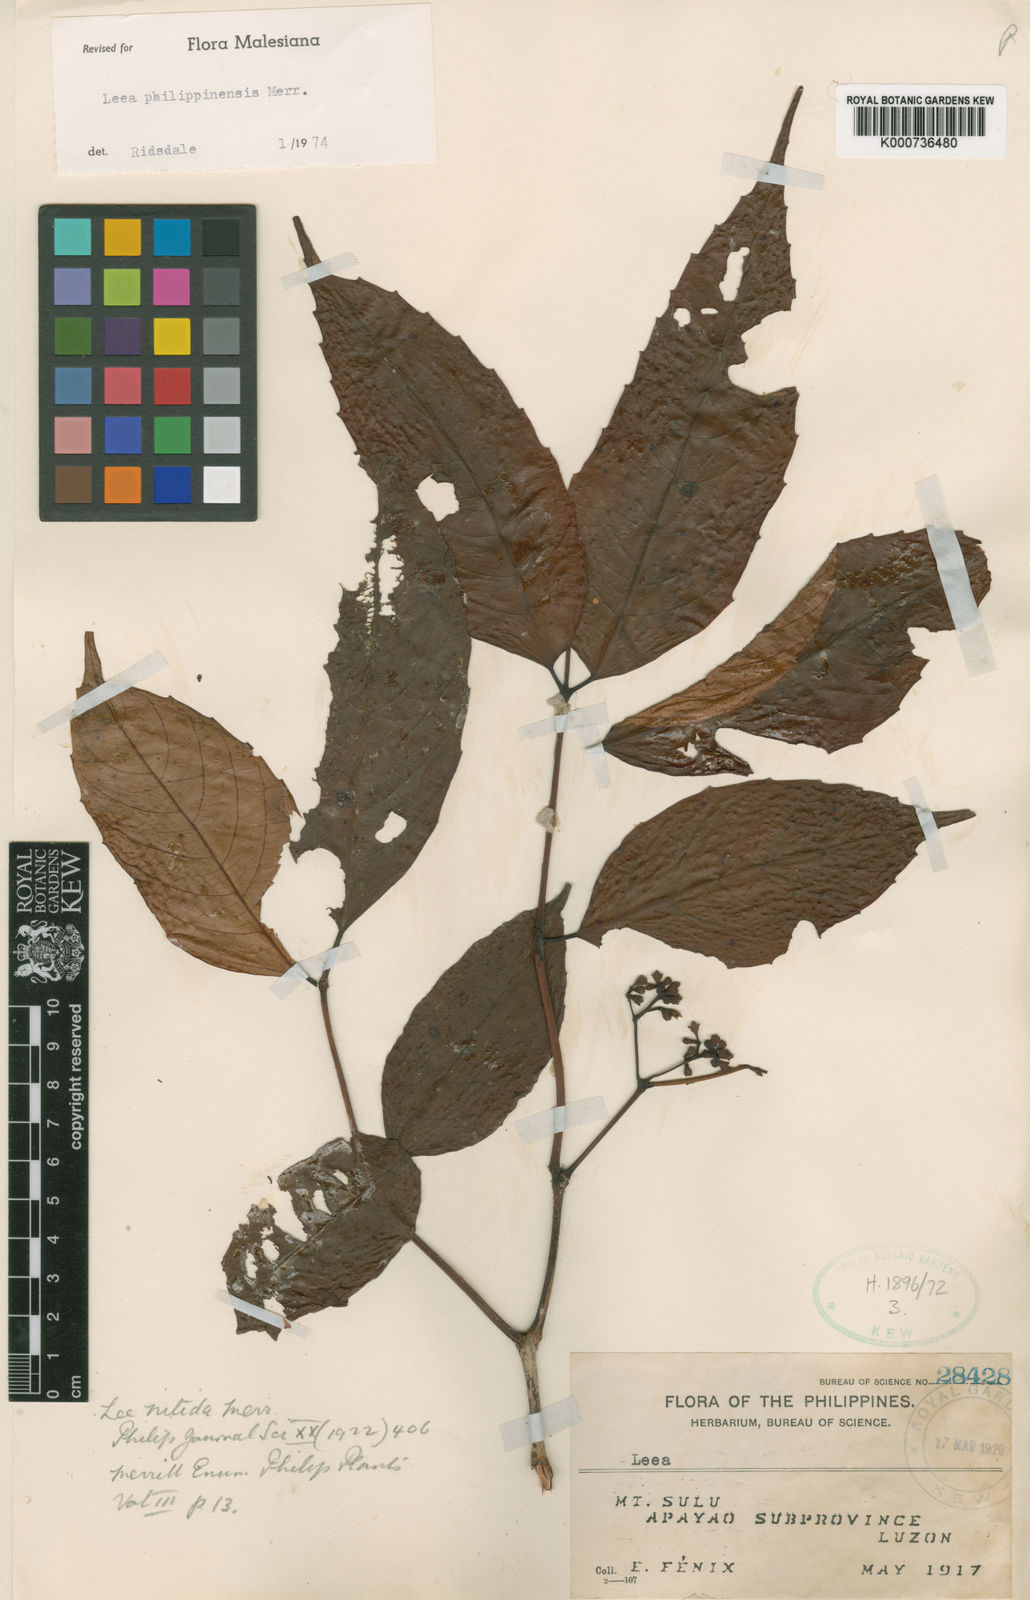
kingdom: Plantae
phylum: Tracheophyta
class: Magnoliopsida
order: Vitales
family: Vitaceae
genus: Leea
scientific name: Leea philippinensis
